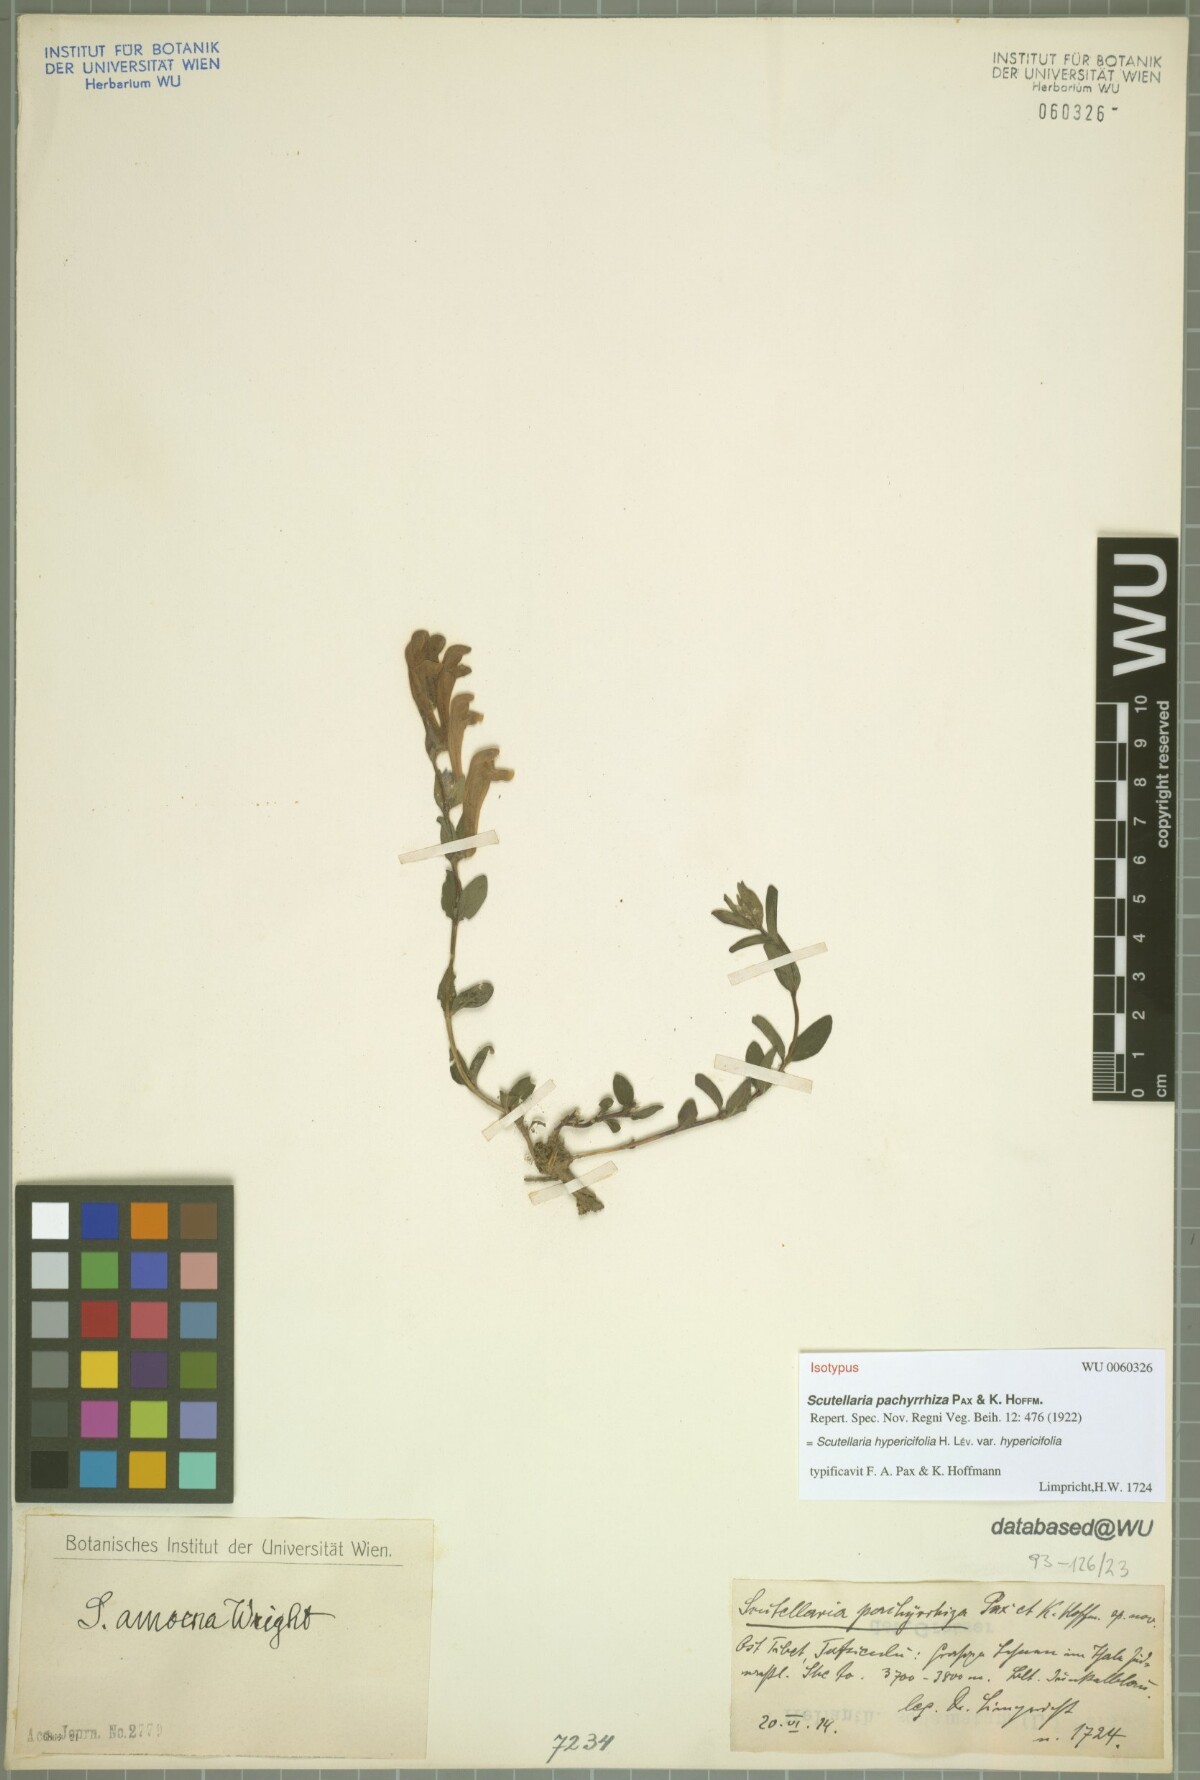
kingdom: Plantae
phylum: Tracheophyta
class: Magnoliopsida
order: Lamiales
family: Lamiaceae
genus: Scutellaria
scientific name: Scutellaria hypericifolia
